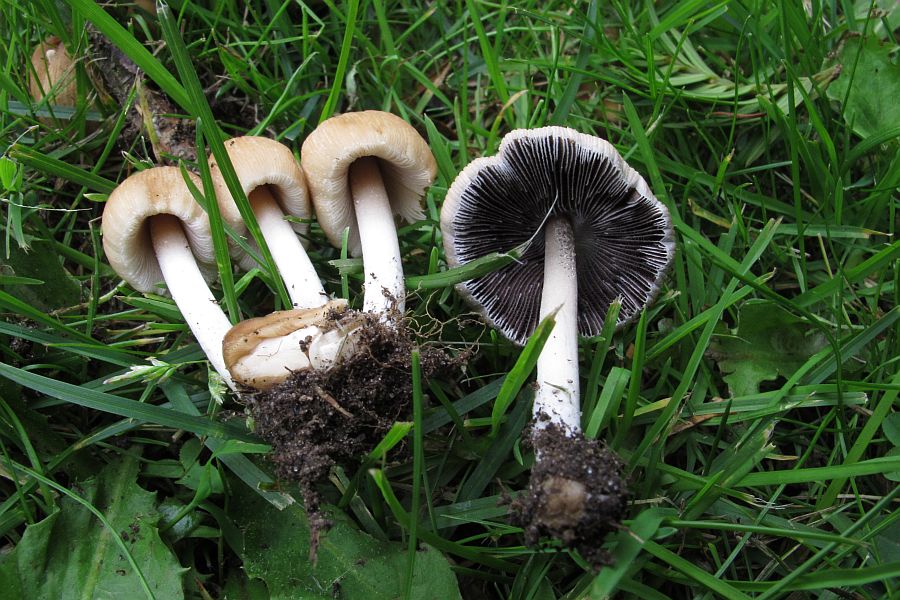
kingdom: Fungi
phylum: Basidiomycota
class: Agaricomycetes
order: Agaricales
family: Psathyrellaceae
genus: Coprinellus
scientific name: Coprinellus micaceus
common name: glimmer-blækhat
